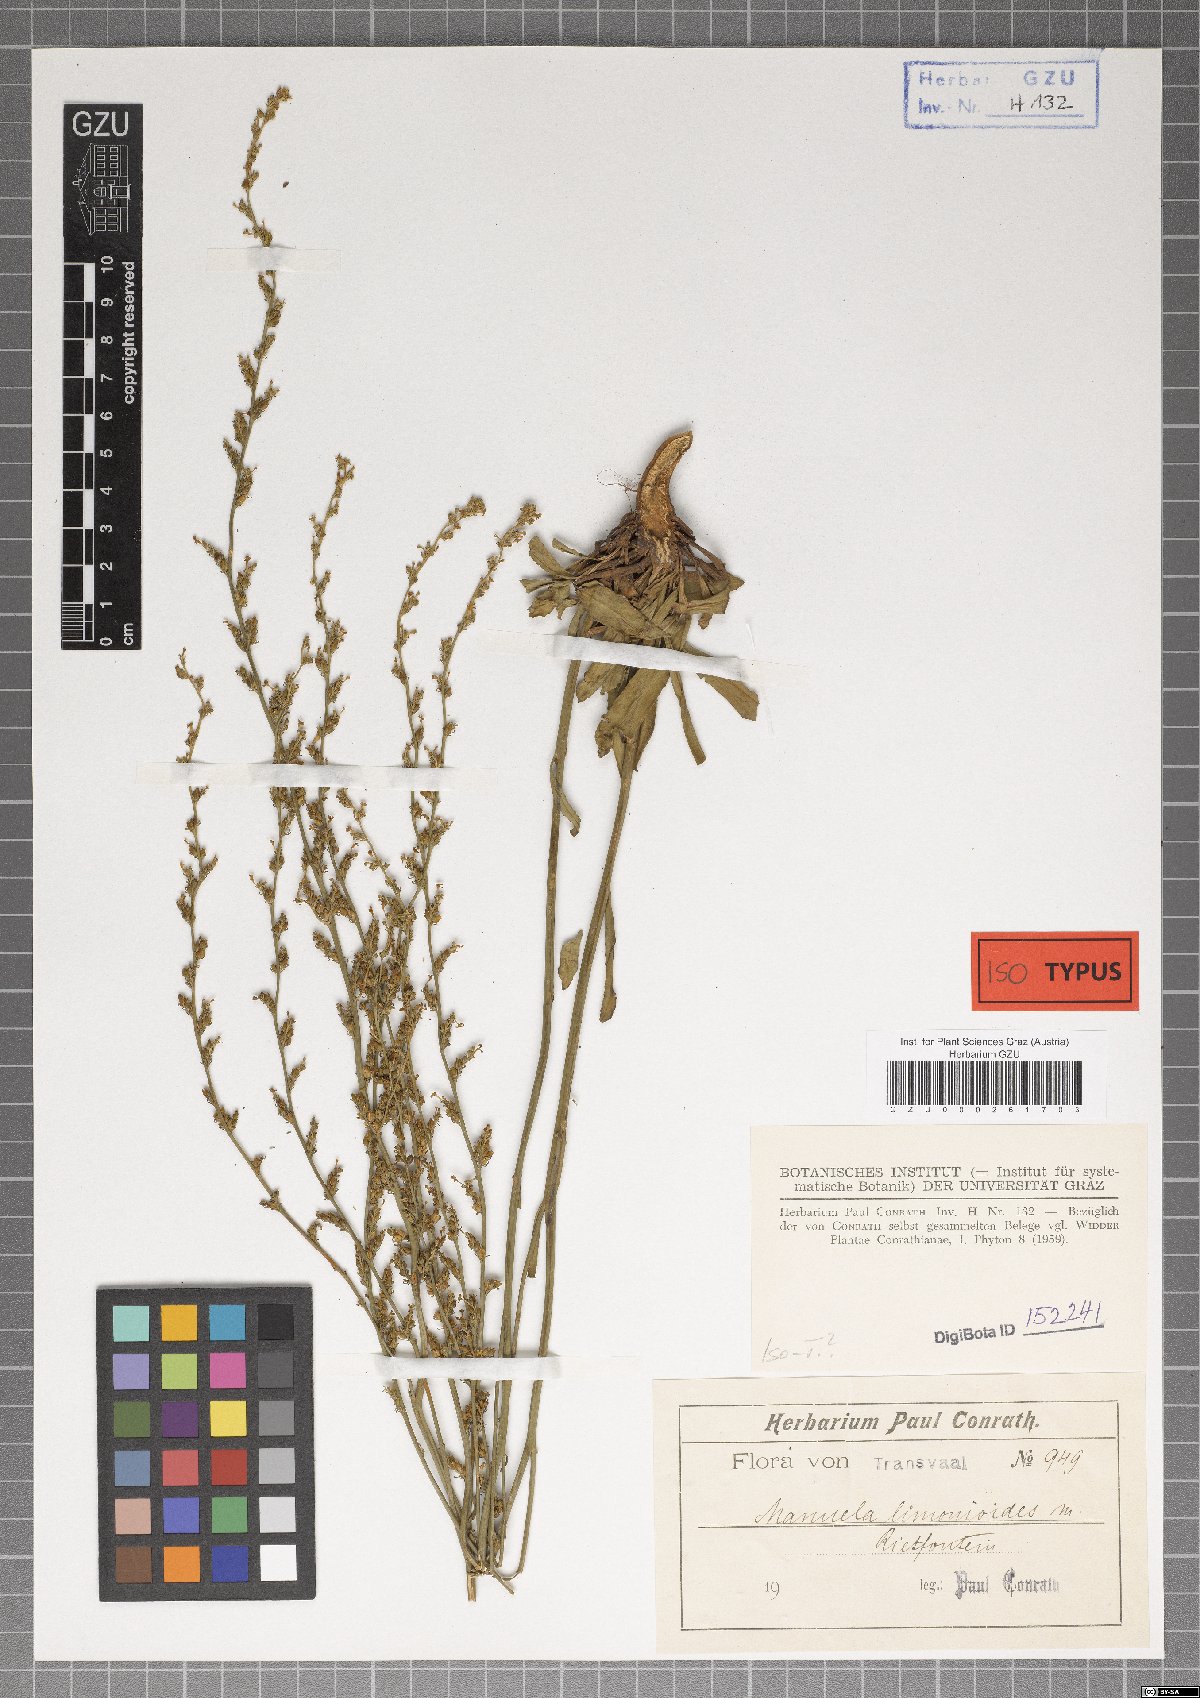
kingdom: Plantae
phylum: Tracheophyta
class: Magnoliopsida
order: Lamiales
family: Scrophulariaceae
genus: Manulea
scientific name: Manulea parviflora
